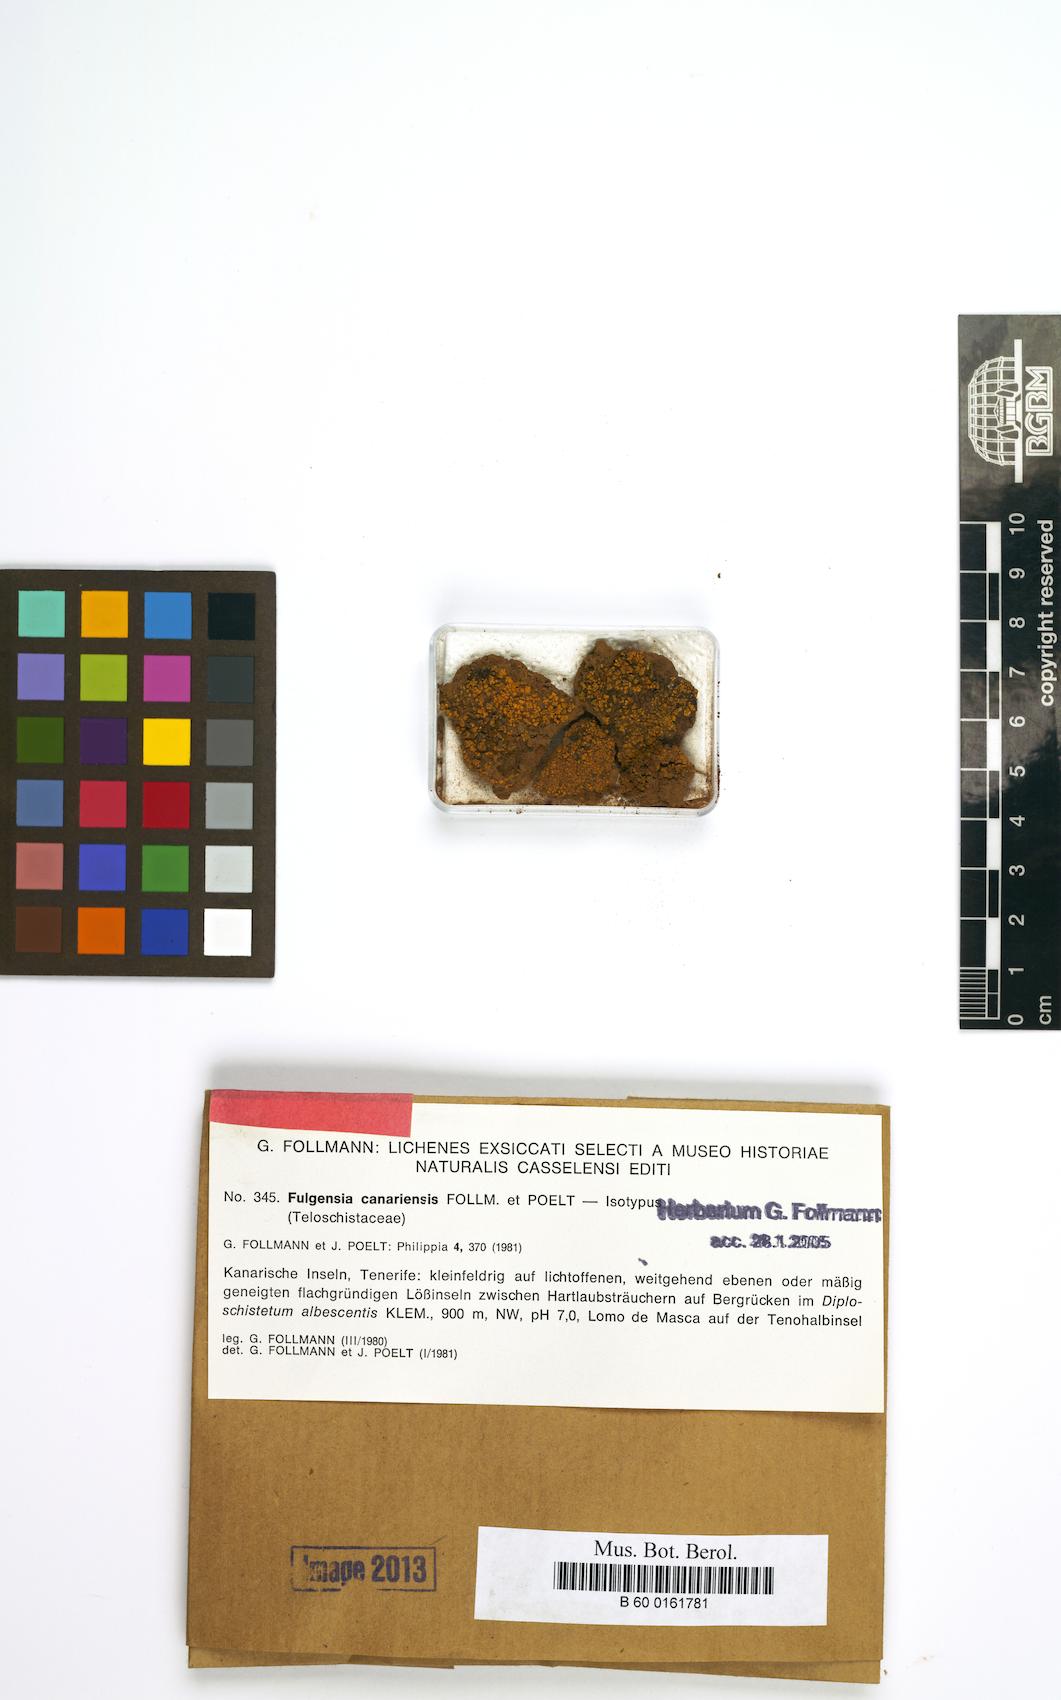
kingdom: Fungi
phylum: Ascomycota
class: Lecanoromycetes
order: Teloschistales
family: Teloschistaceae
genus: Gyalolechia
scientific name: Gyalolechia canariensis
